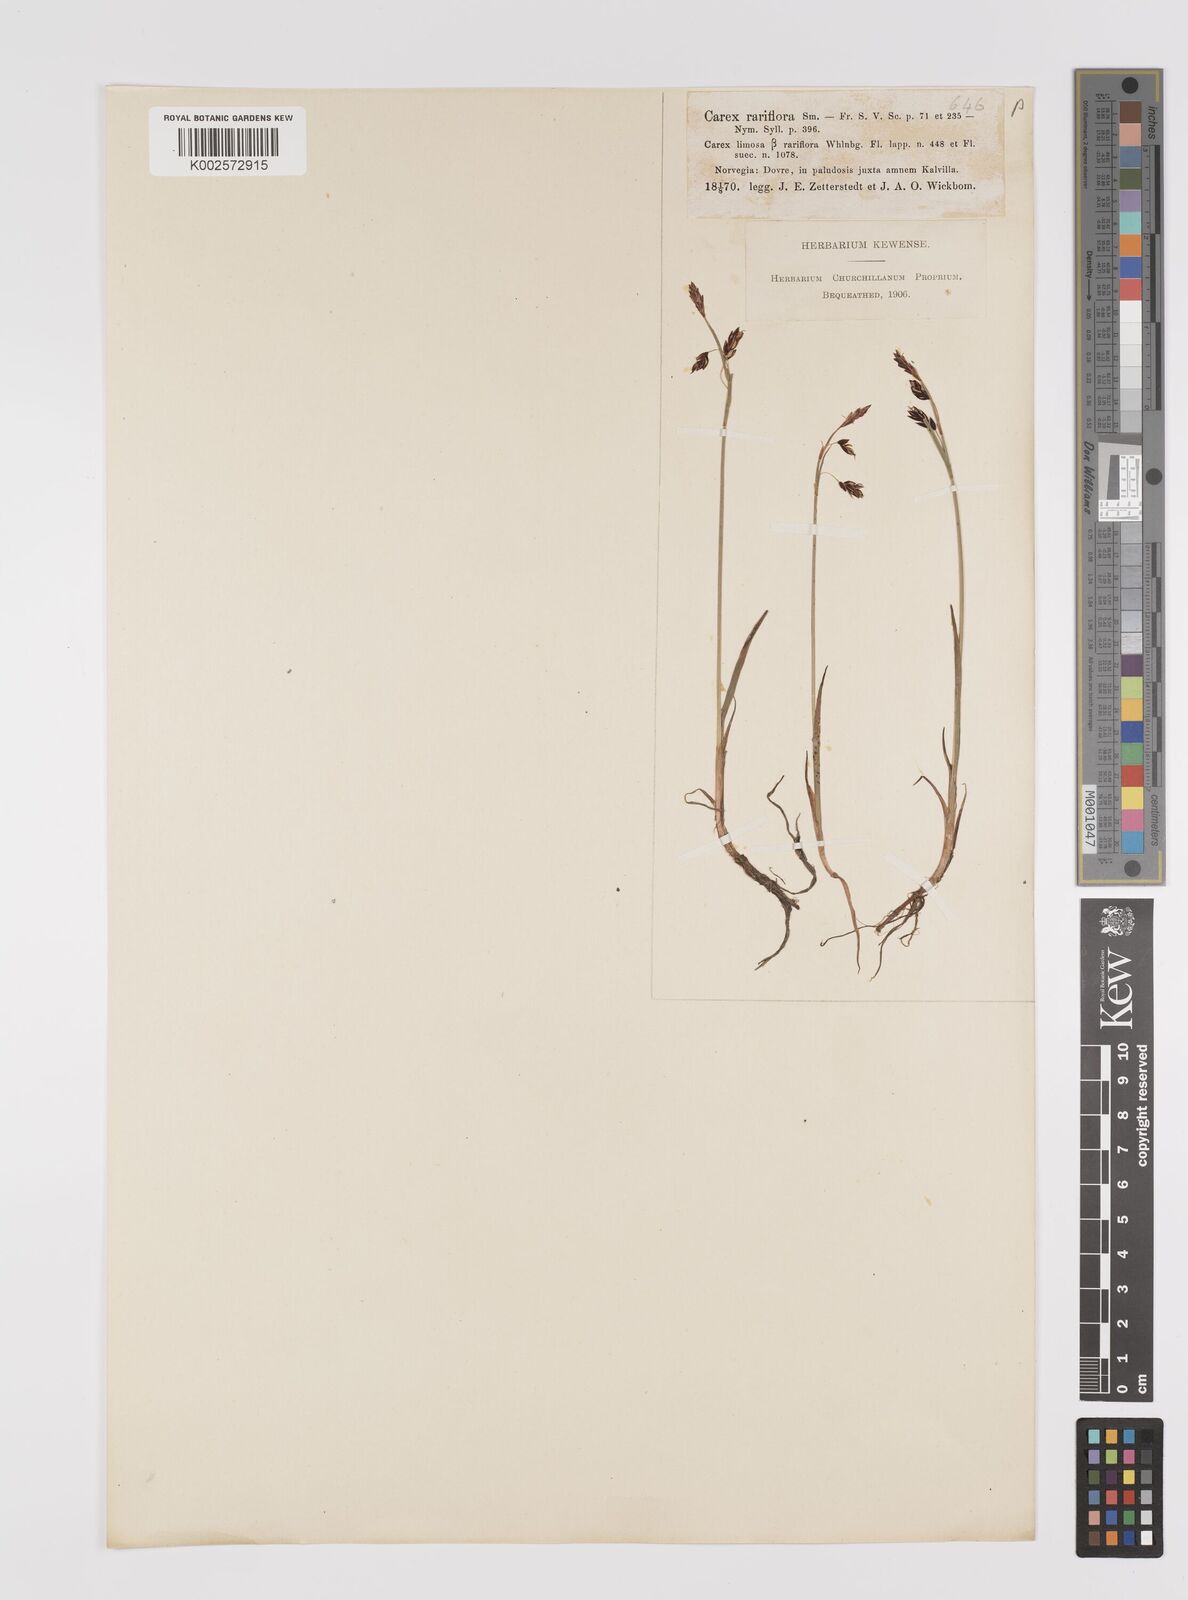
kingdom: Plantae
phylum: Tracheophyta
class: Liliopsida
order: Poales
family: Cyperaceae
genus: Carex
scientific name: Carex rariflora
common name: Loose-flowered alpine sedge
